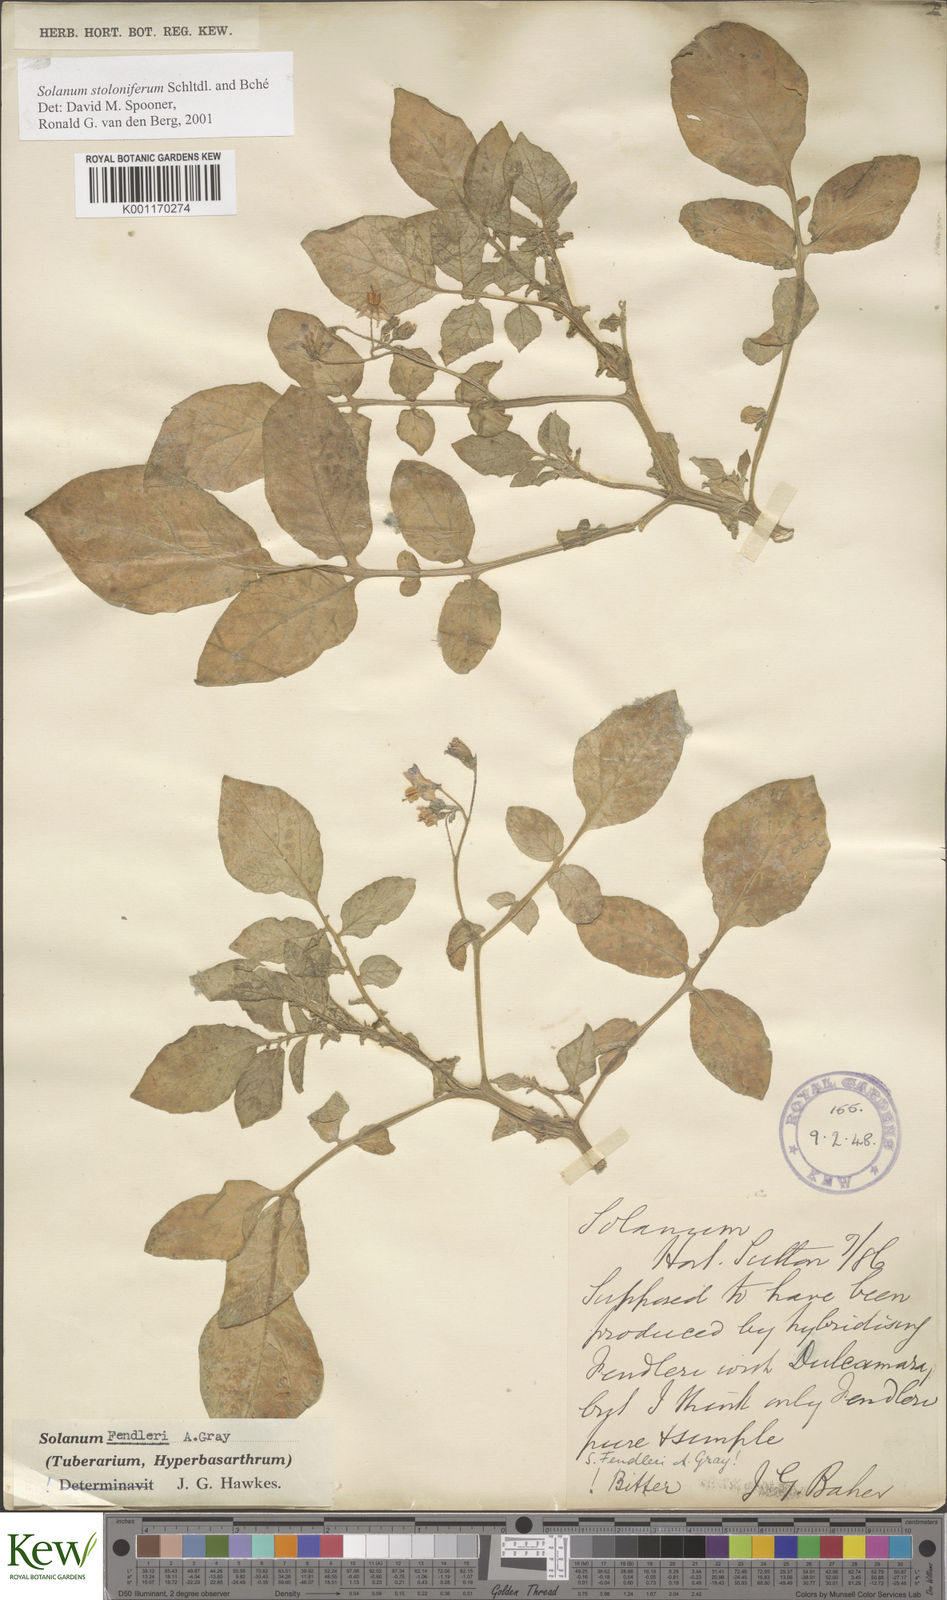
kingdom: Plantae
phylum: Tracheophyta
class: Magnoliopsida
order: Solanales
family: Solanaceae
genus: Solanum
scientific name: Solanum stoloniferum
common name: Fendler's nighshade
